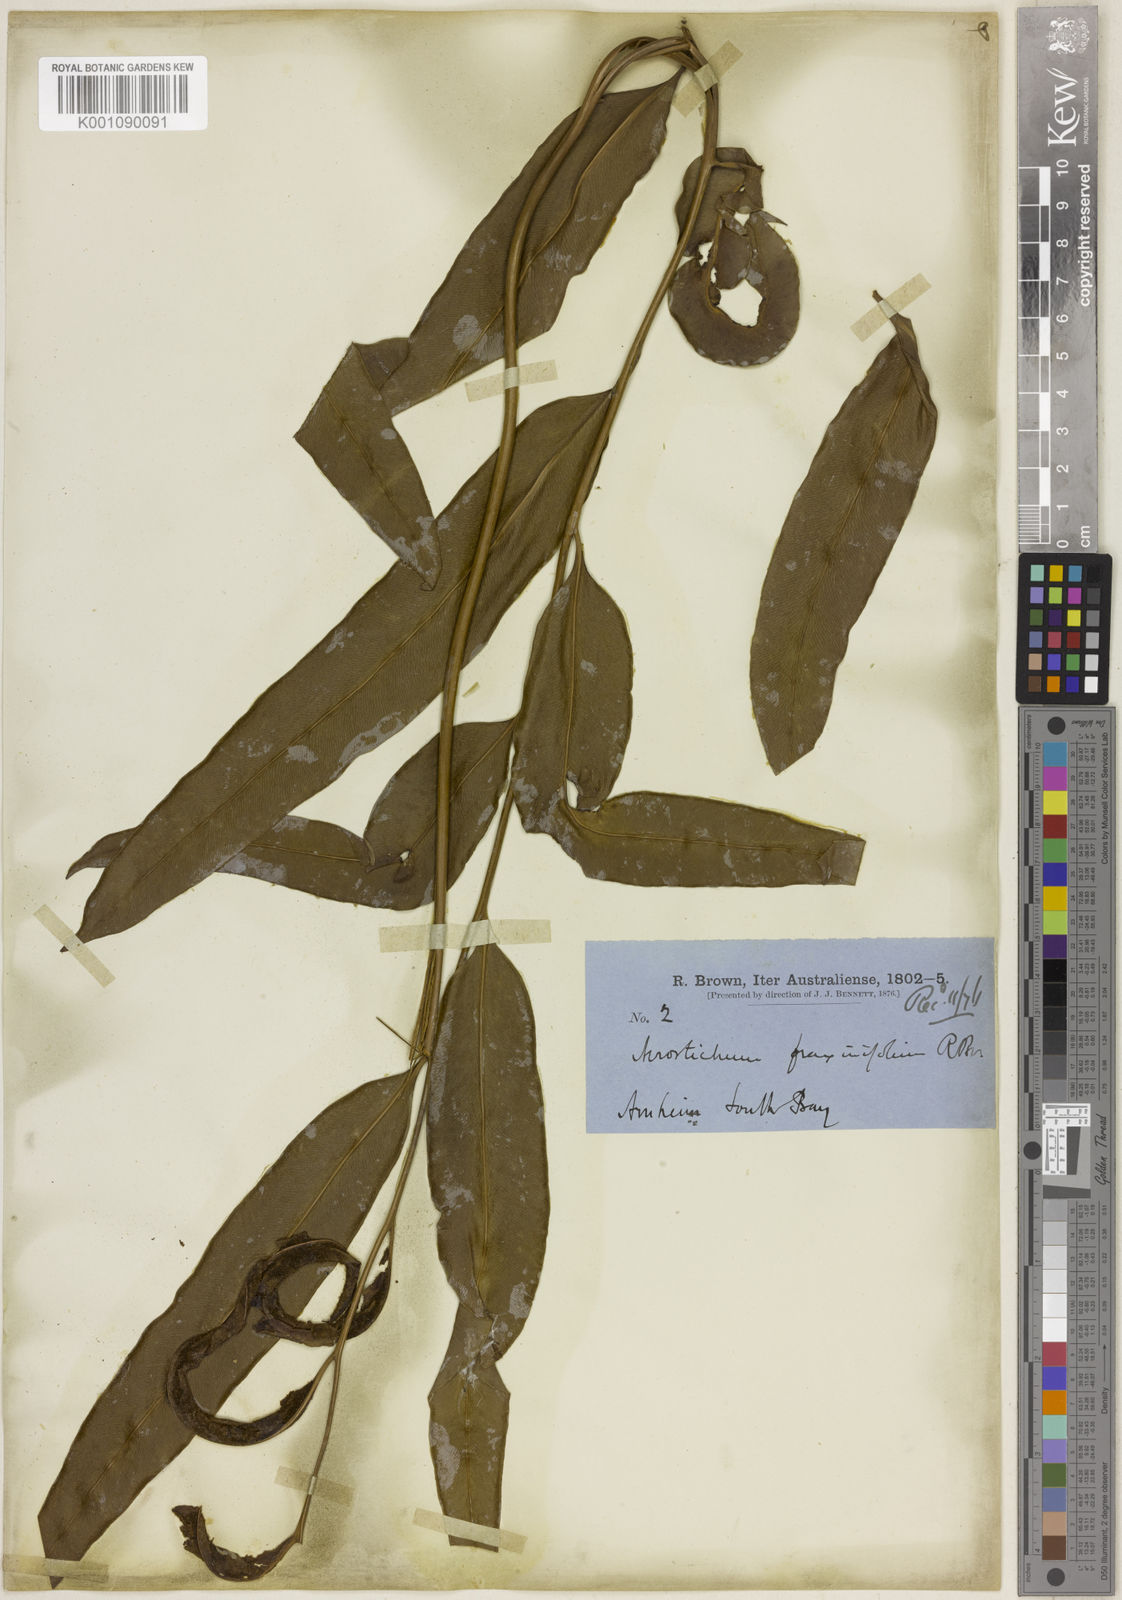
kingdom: Plantae
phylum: Tracheophyta
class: Polypodiopsida
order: Polypodiales
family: Pteridaceae
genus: Acrostichum
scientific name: Acrostichum speciosum
